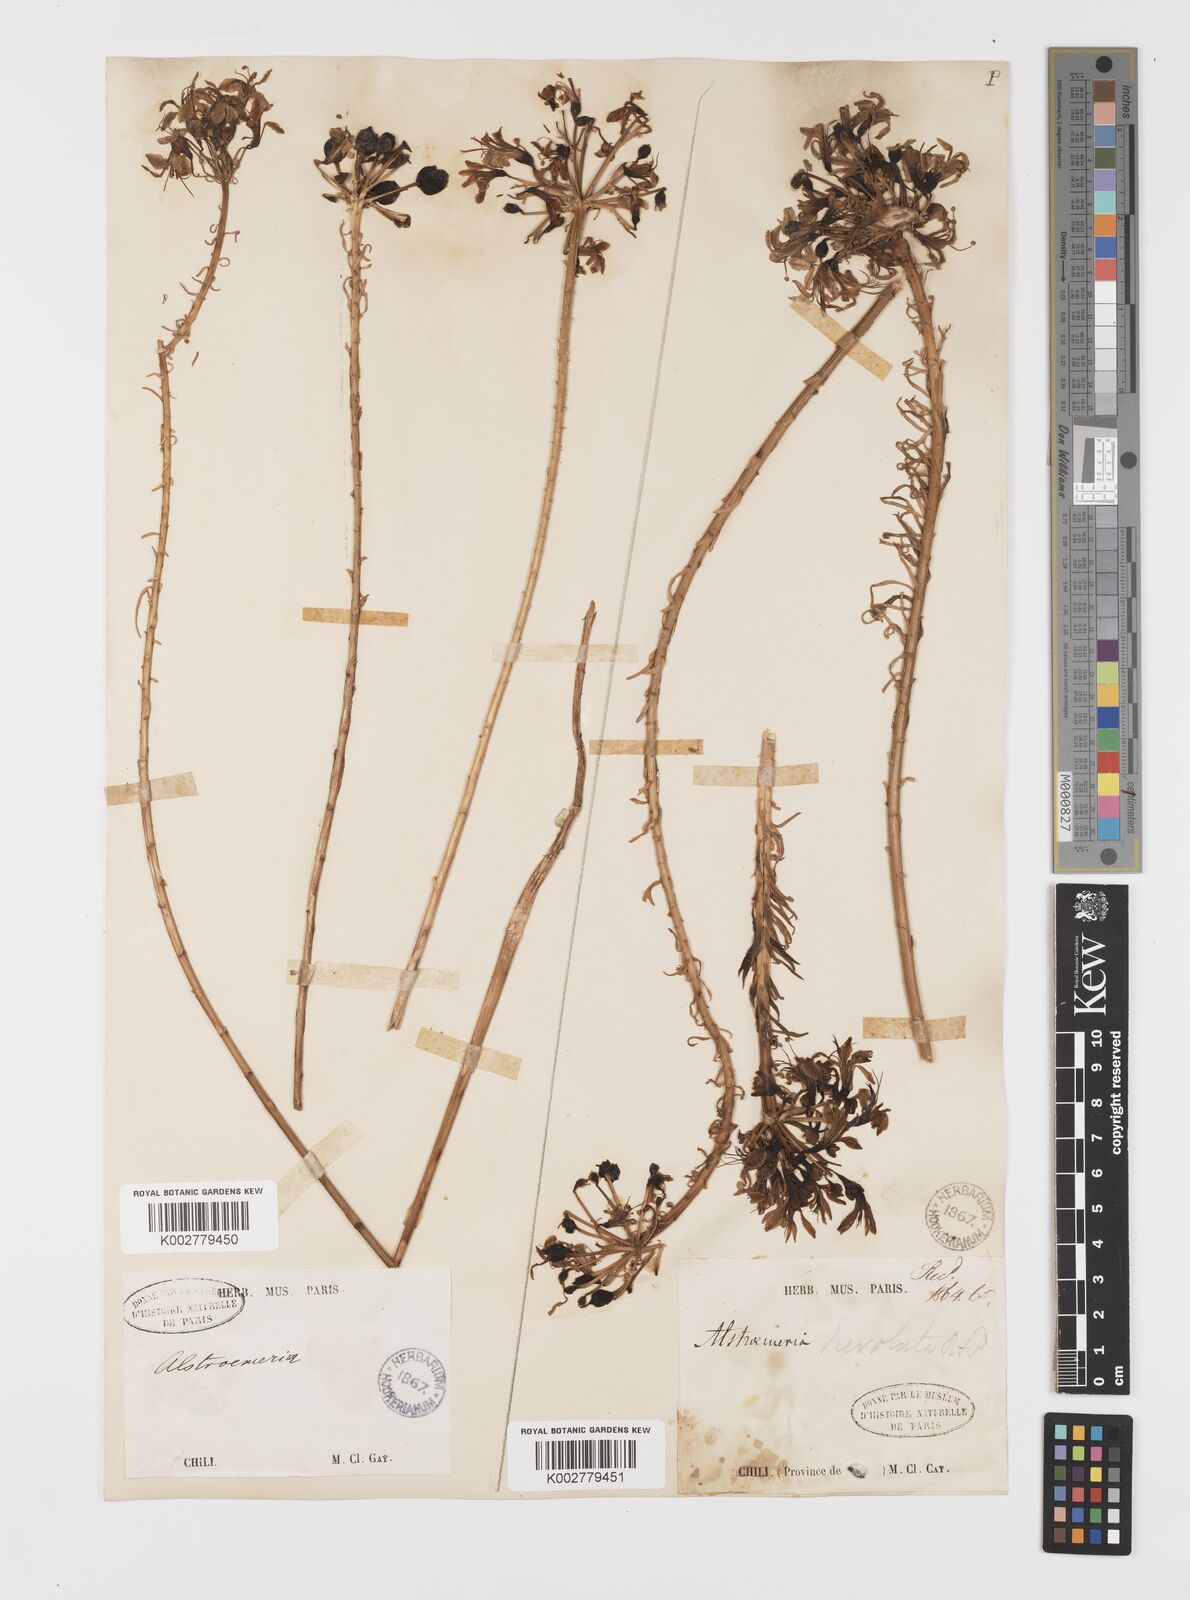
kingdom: Plantae
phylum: Tracheophyta
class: Liliopsida
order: Liliales
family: Alstroemeriaceae
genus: Alstroemeria
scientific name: Alstroemeria revoluta
